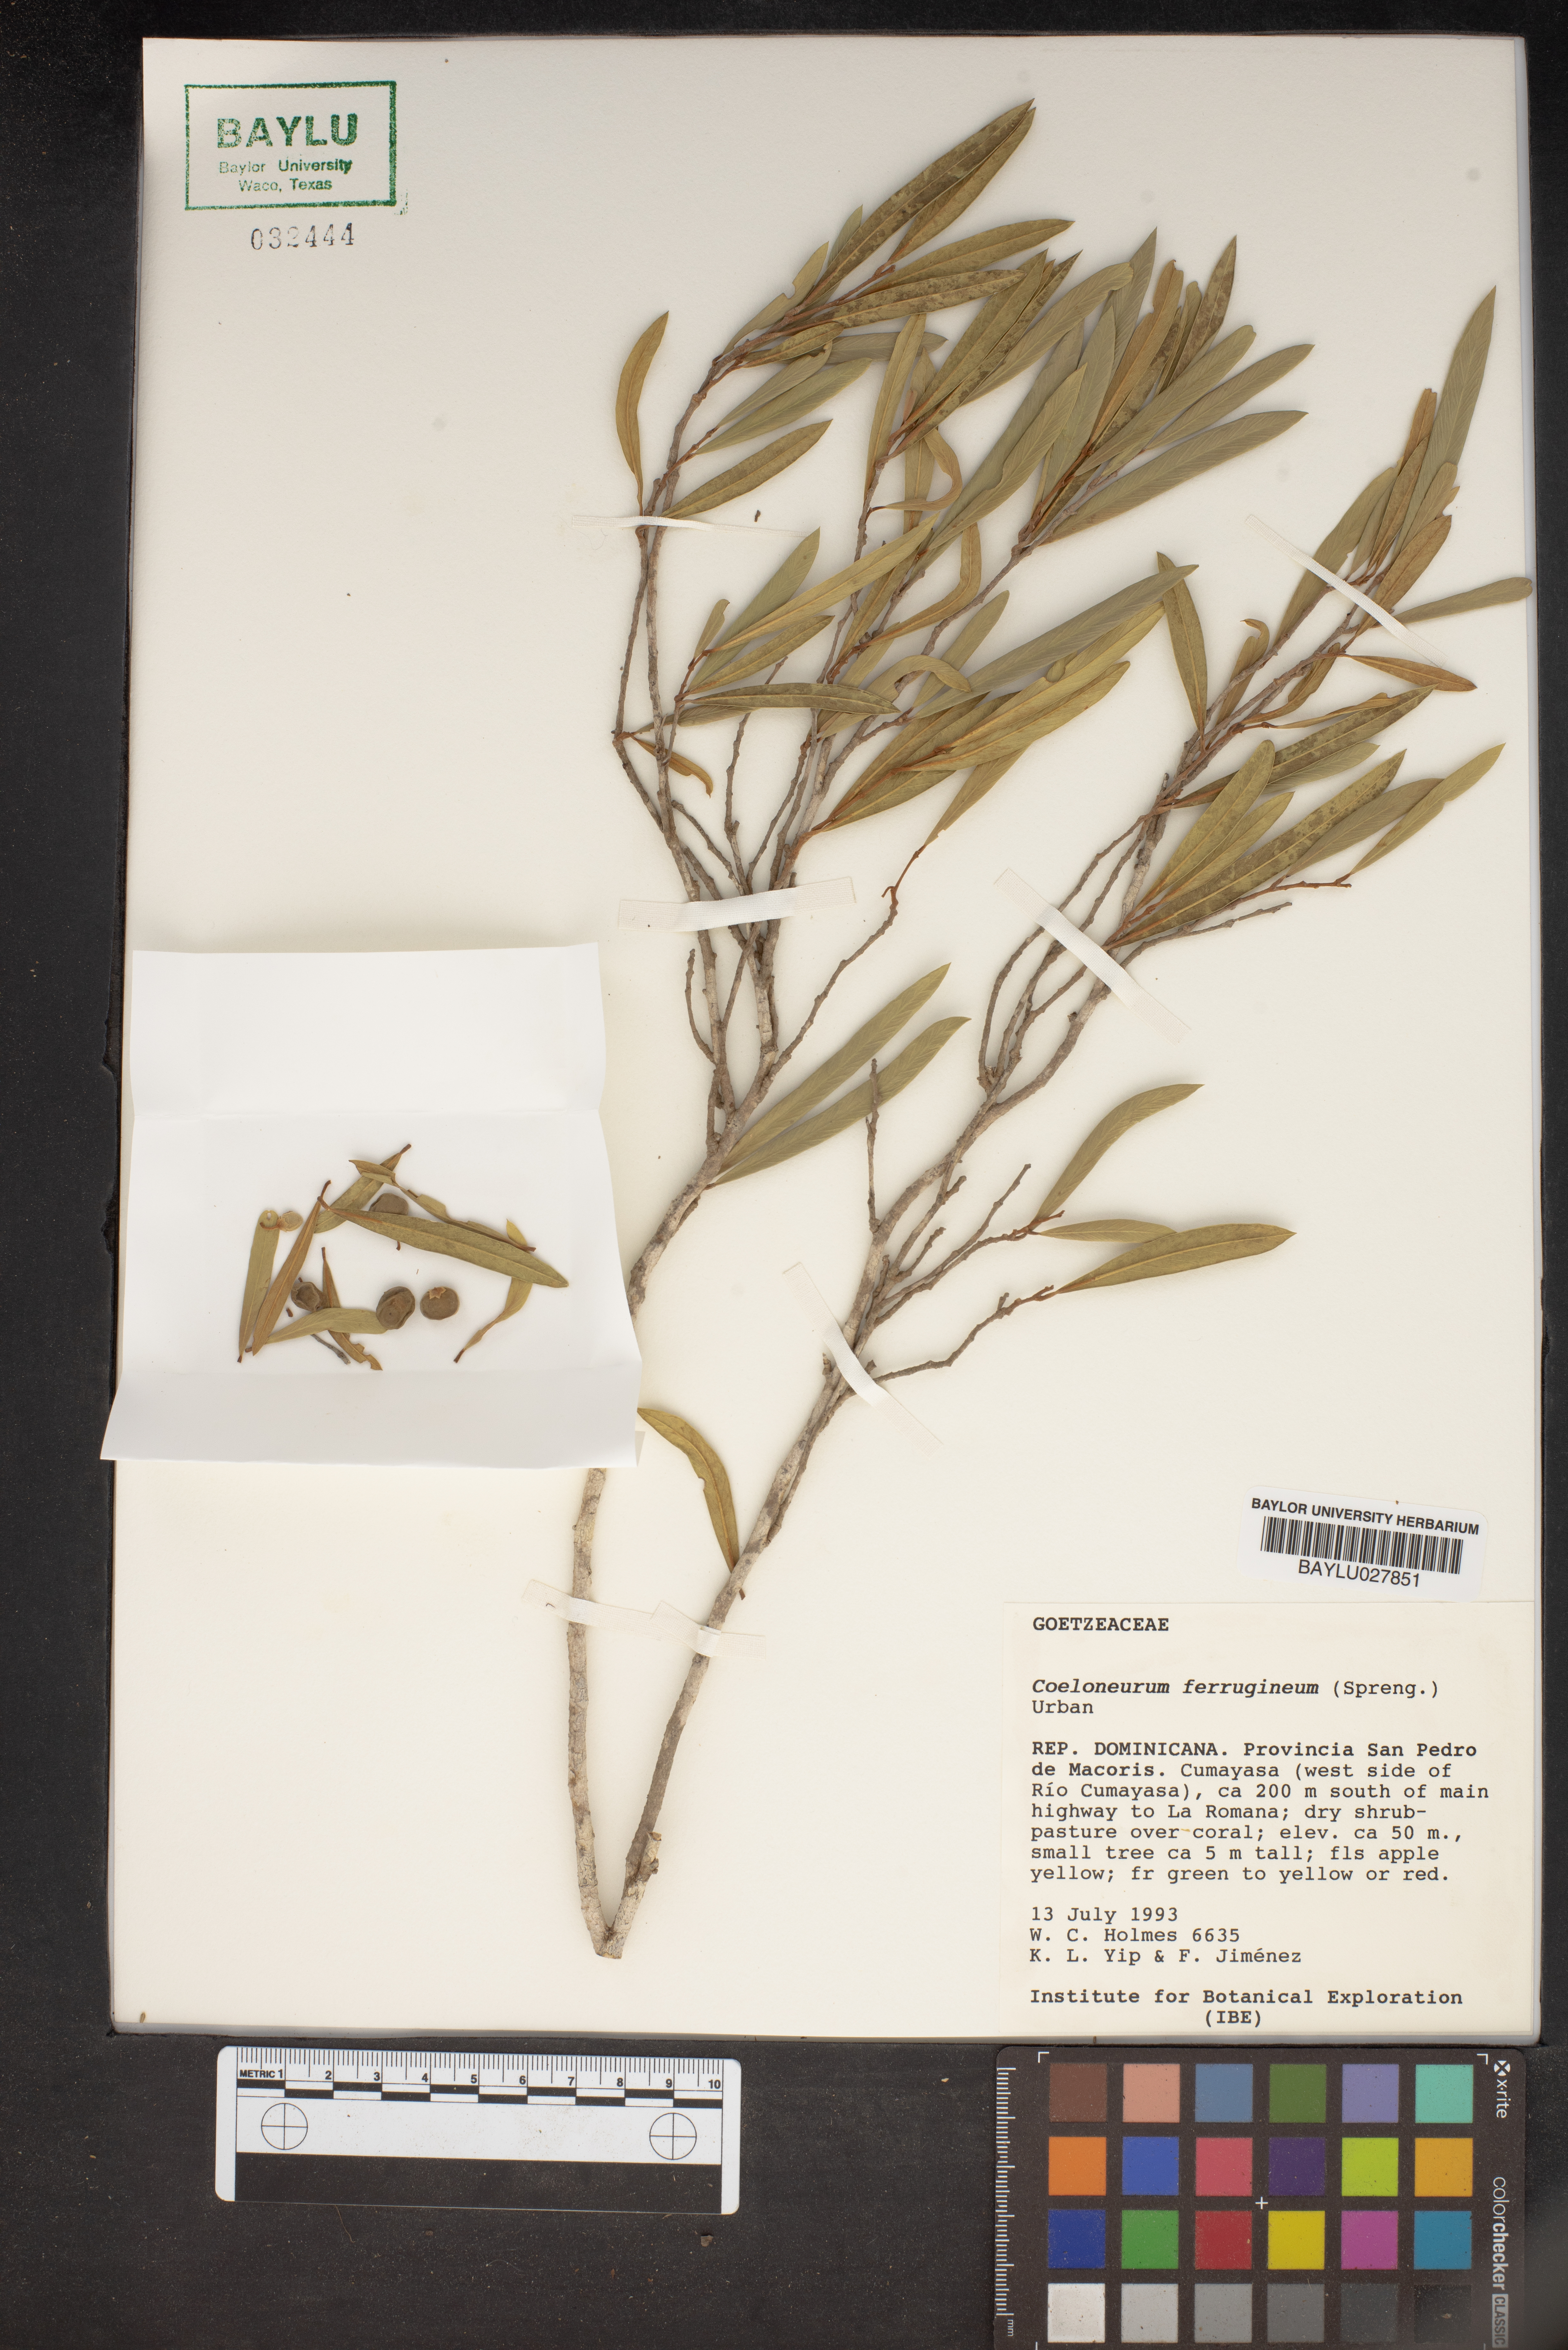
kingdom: Plantae
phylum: Tracheophyta
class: Magnoliopsida
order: Solanales
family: Solanaceae
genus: Coeloneurum
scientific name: Coeloneurum ferrugineum
